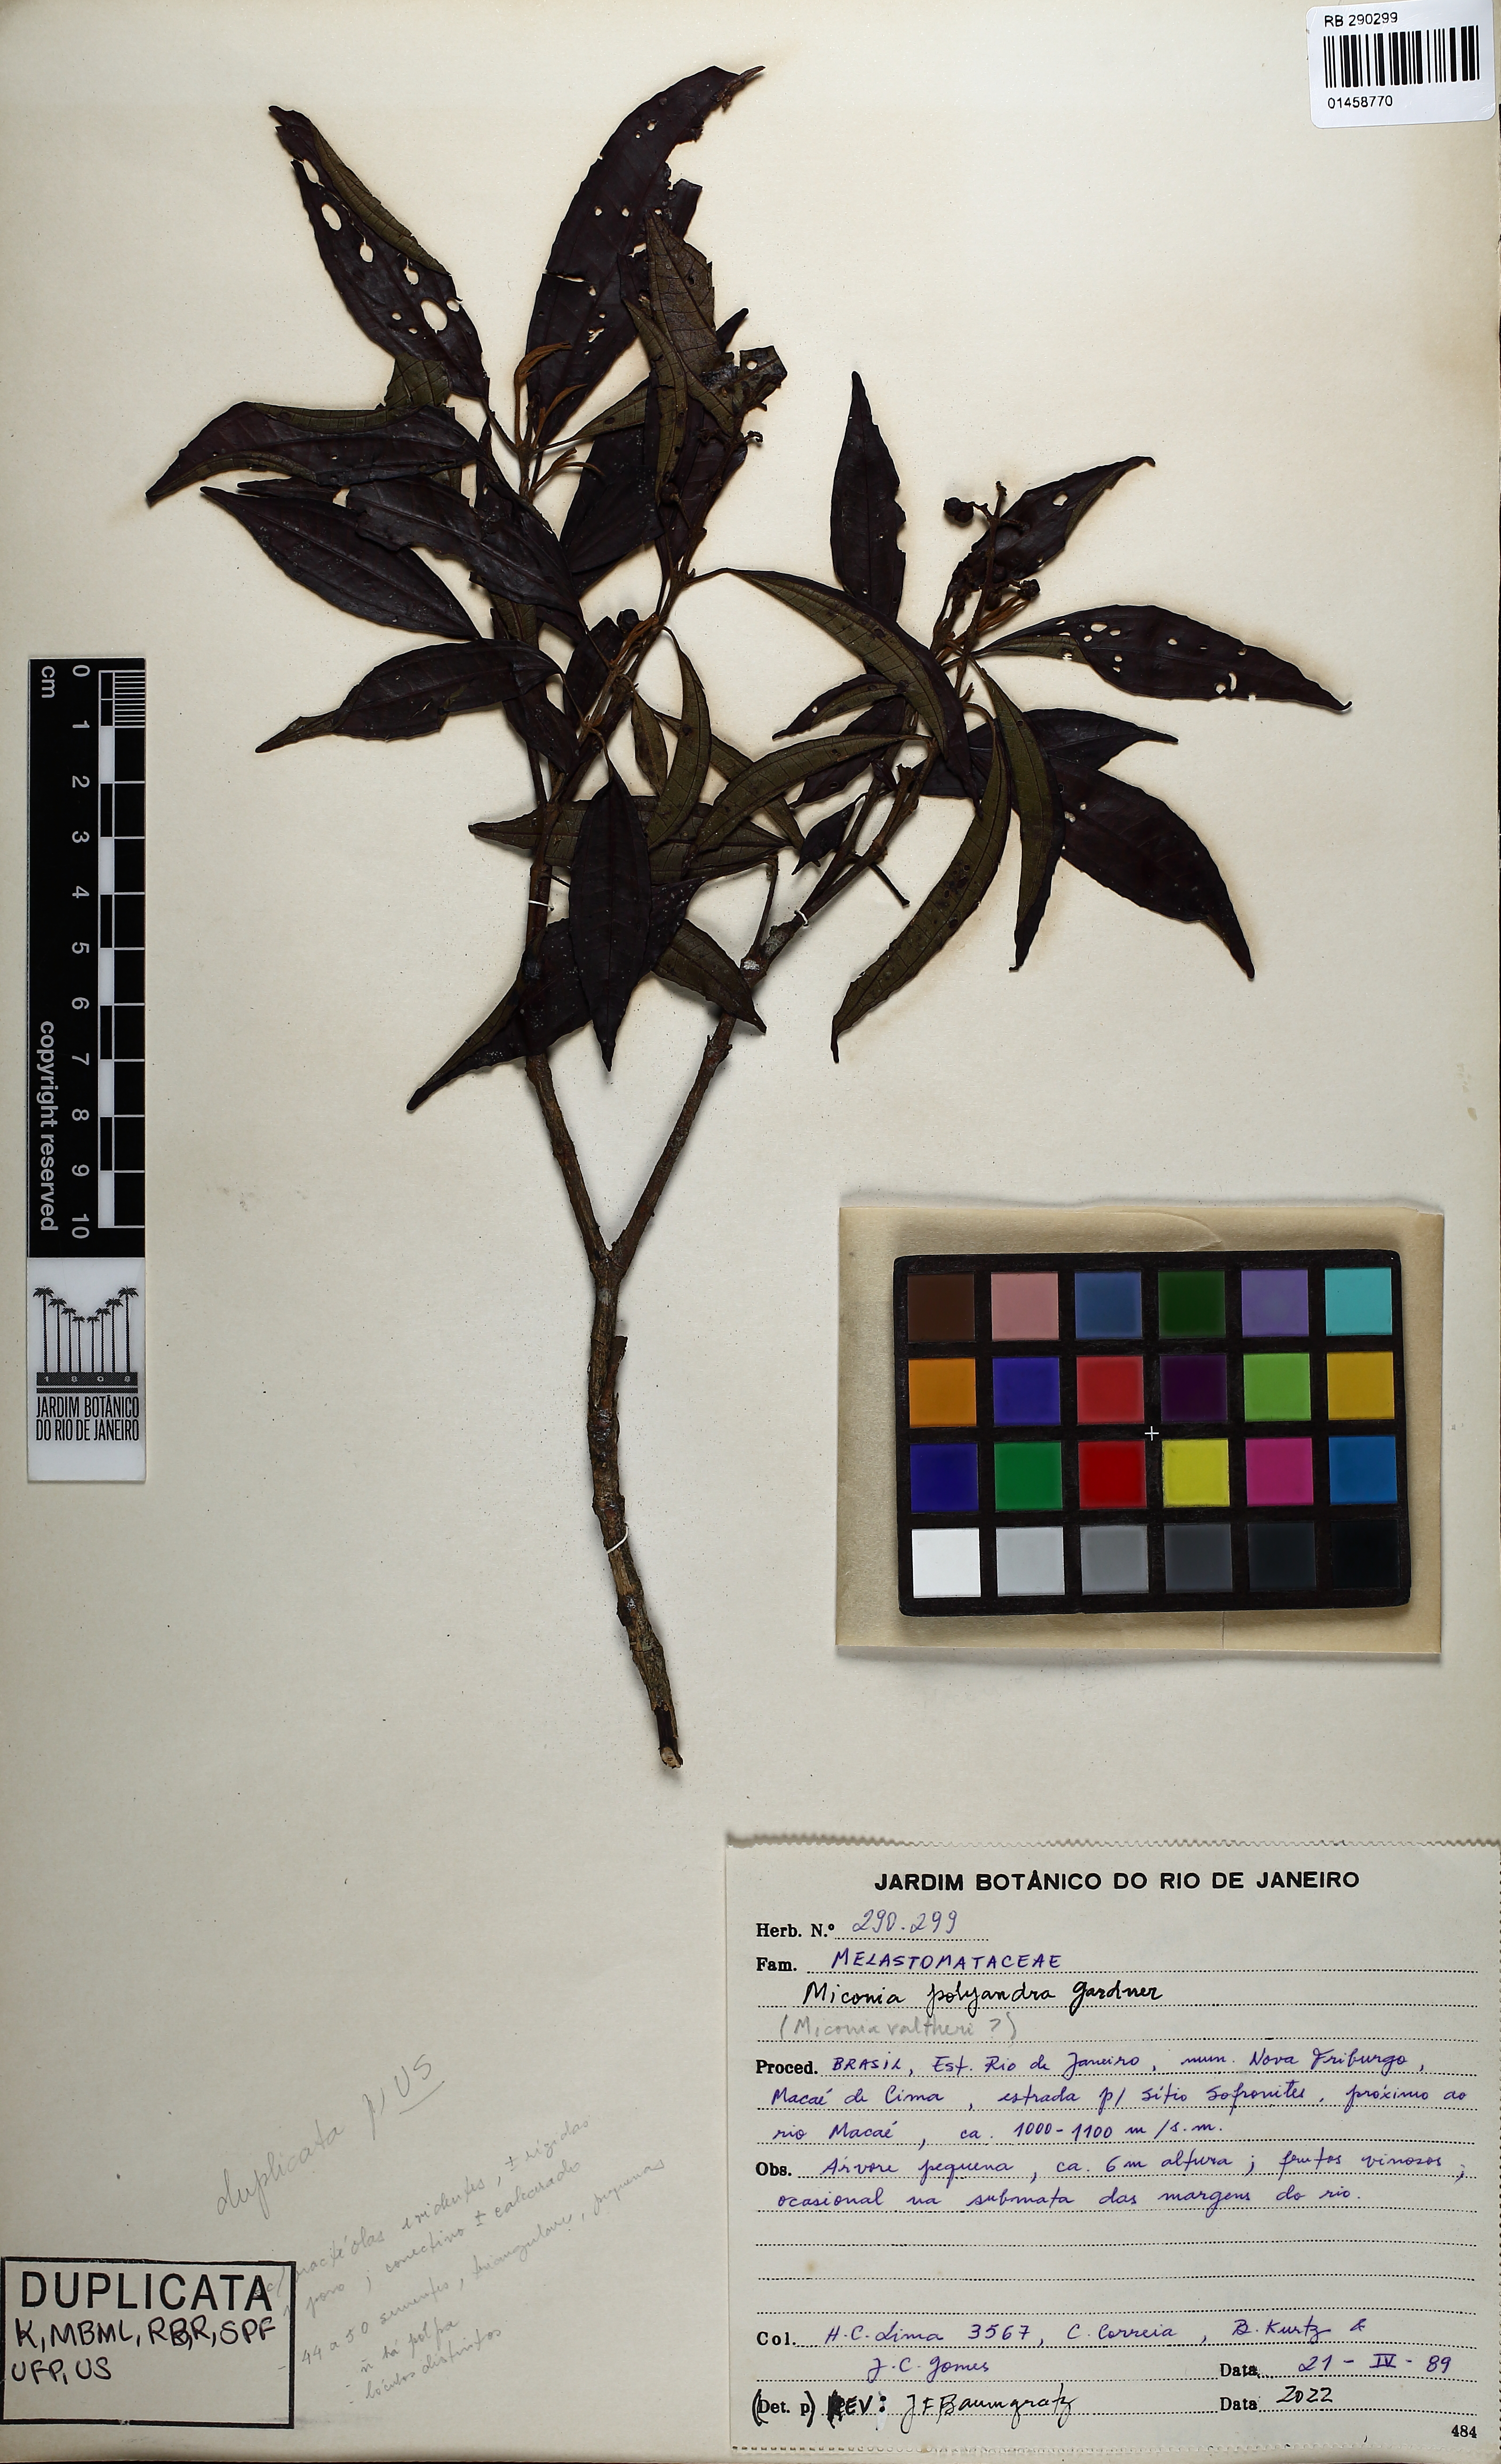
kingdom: Plantae
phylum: Tracheophyta
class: Magnoliopsida
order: Myrtales
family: Melastomataceae
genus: Miconia
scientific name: Miconia polyandra
